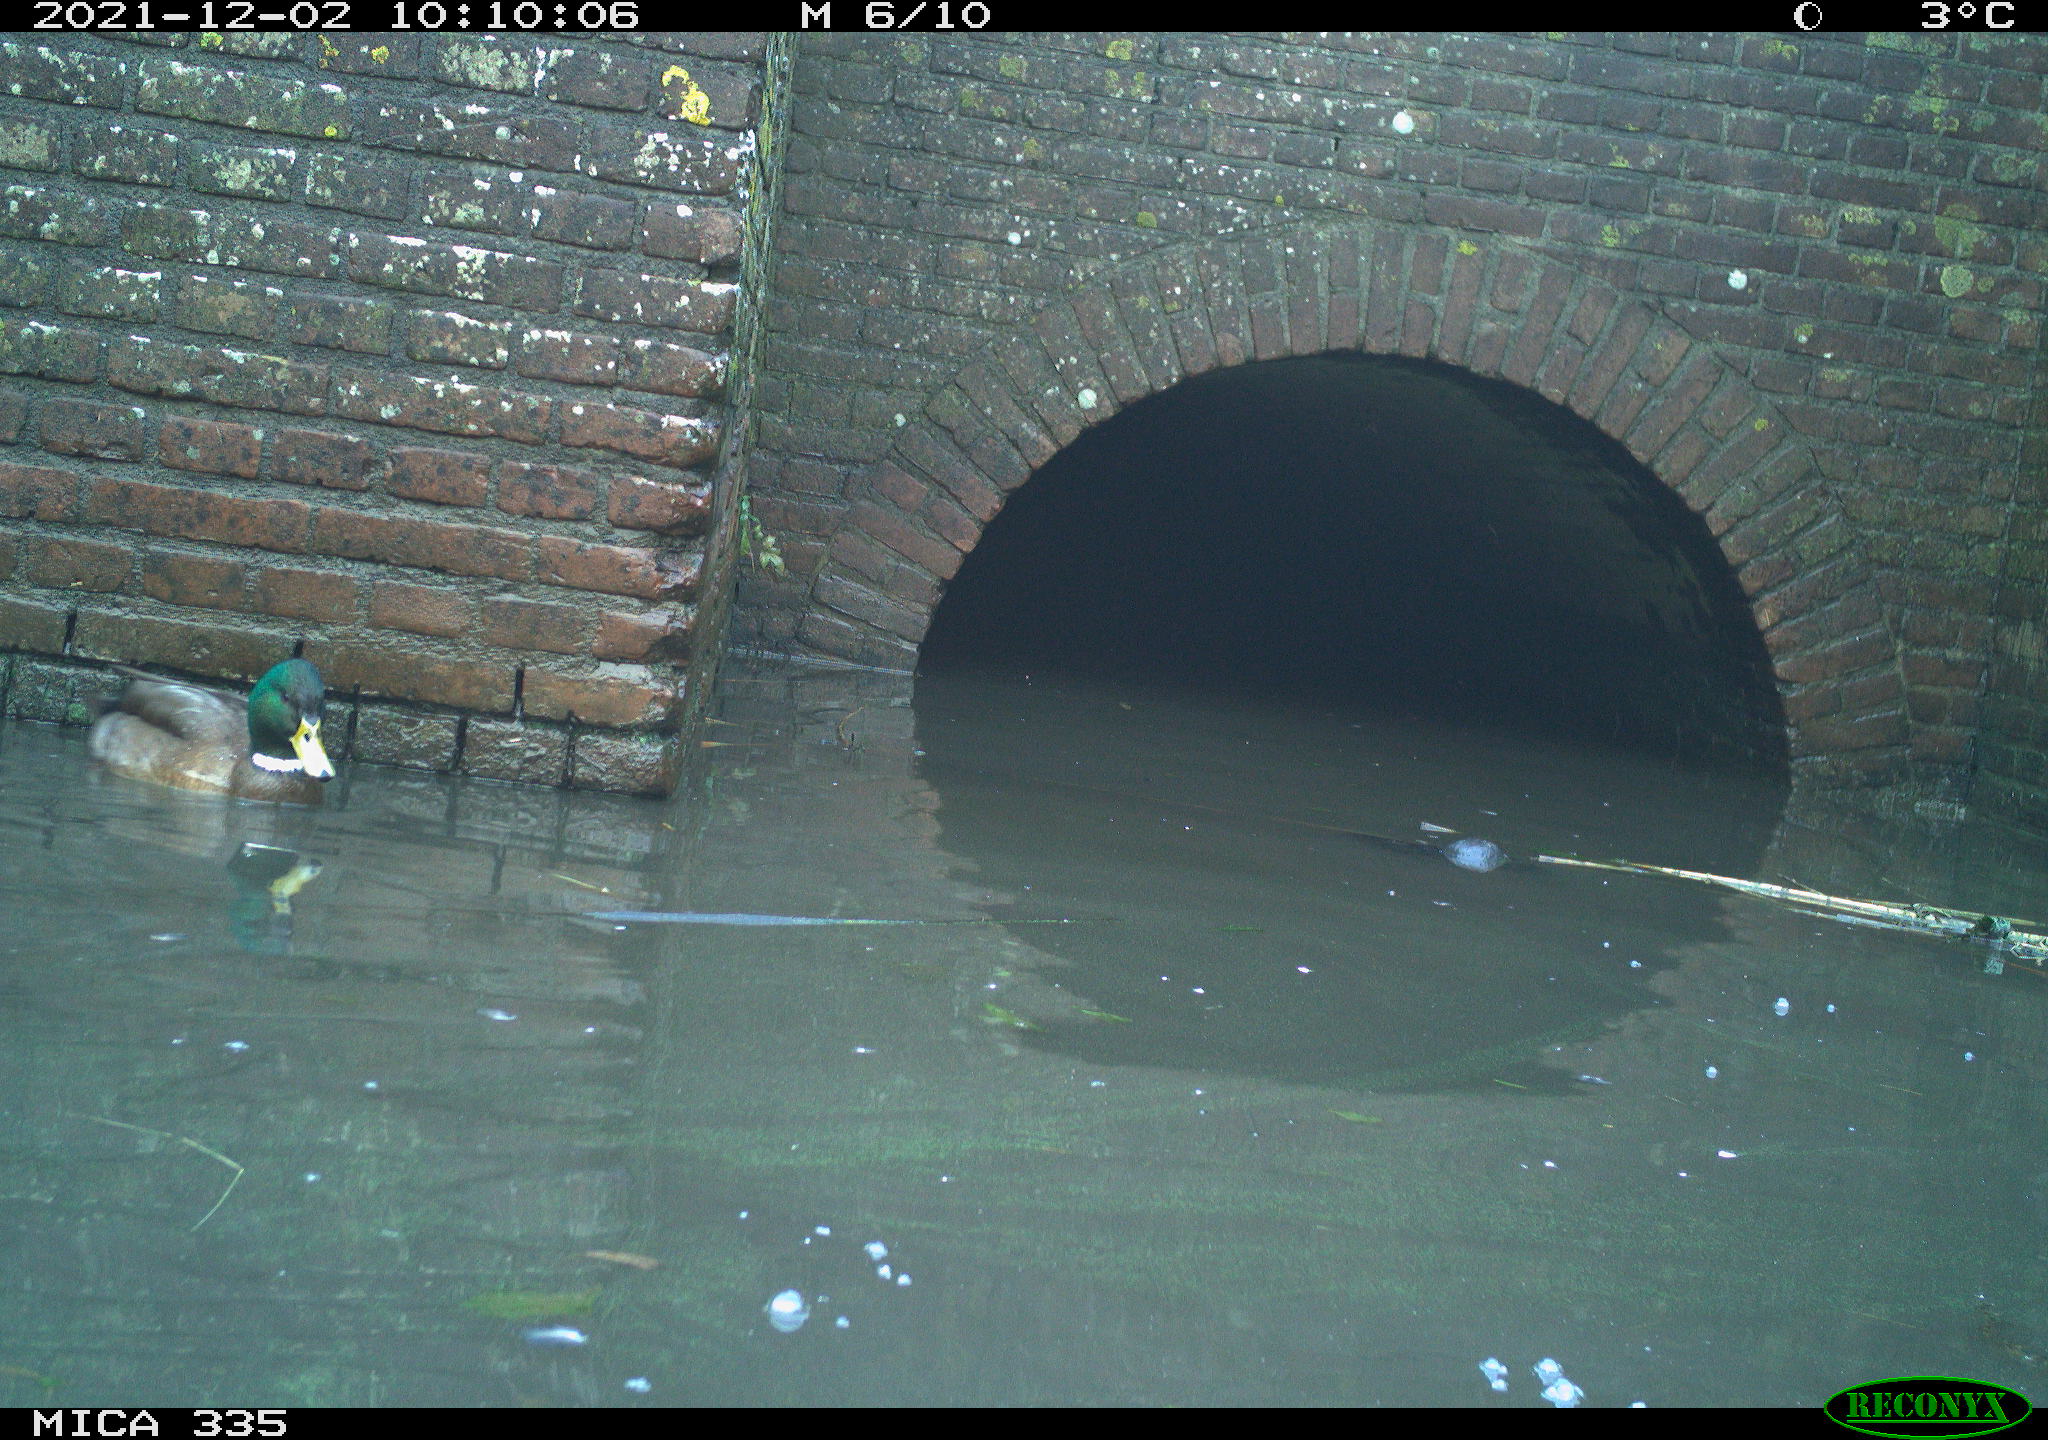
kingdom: Animalia
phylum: Chordata
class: Aves
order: Anseriformes
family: Anatidae
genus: Anas
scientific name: Anas platyrhynchos
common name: Mallard
